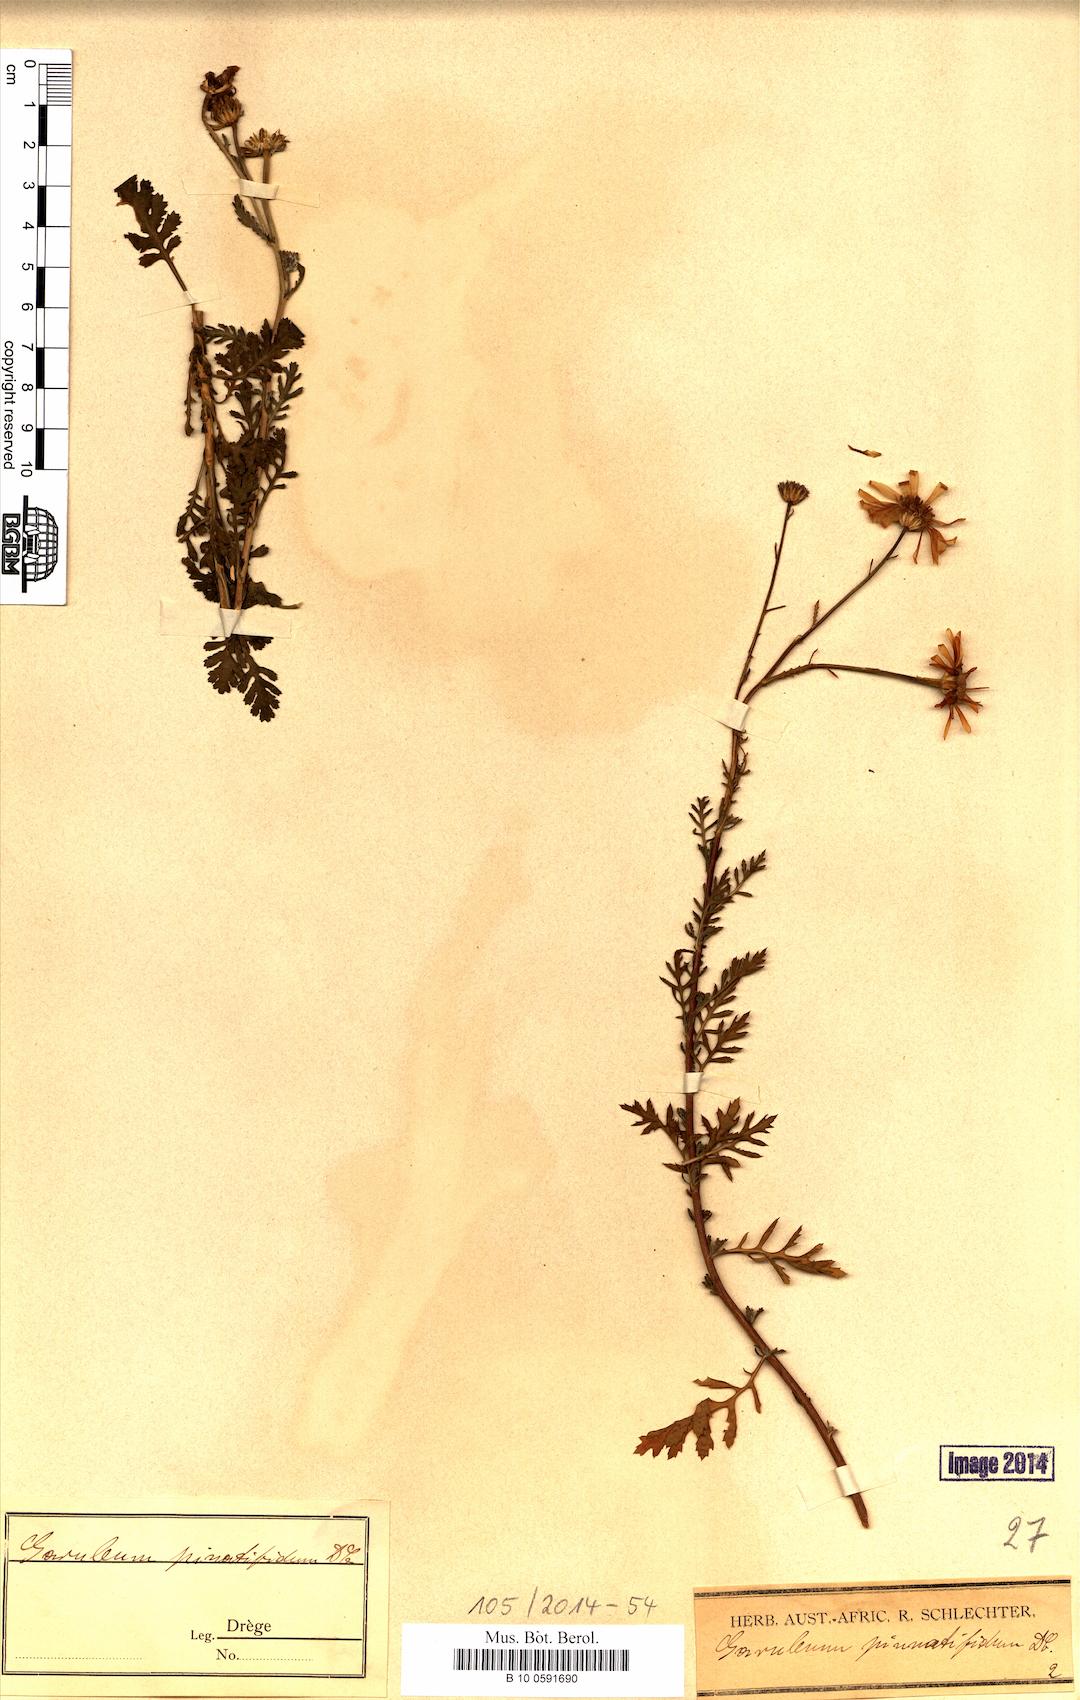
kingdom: Plantae
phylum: Tracheophyta
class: Magnoliopsida
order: Asterales
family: Asteraceae
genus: Garuleum
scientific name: Garuleum pinnatifidum
